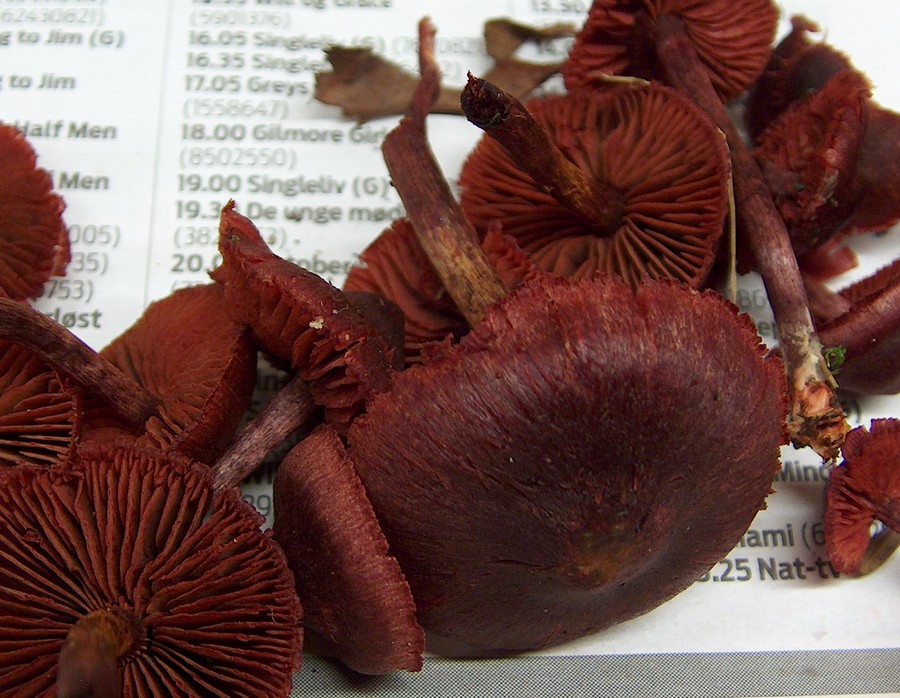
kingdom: Fungi
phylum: Basidiomycota
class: Agaricomycetes
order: Agaricales
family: Cortinariaceae
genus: Cortinarius
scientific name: Cortinarius sanguineus
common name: blodrød slørhat
